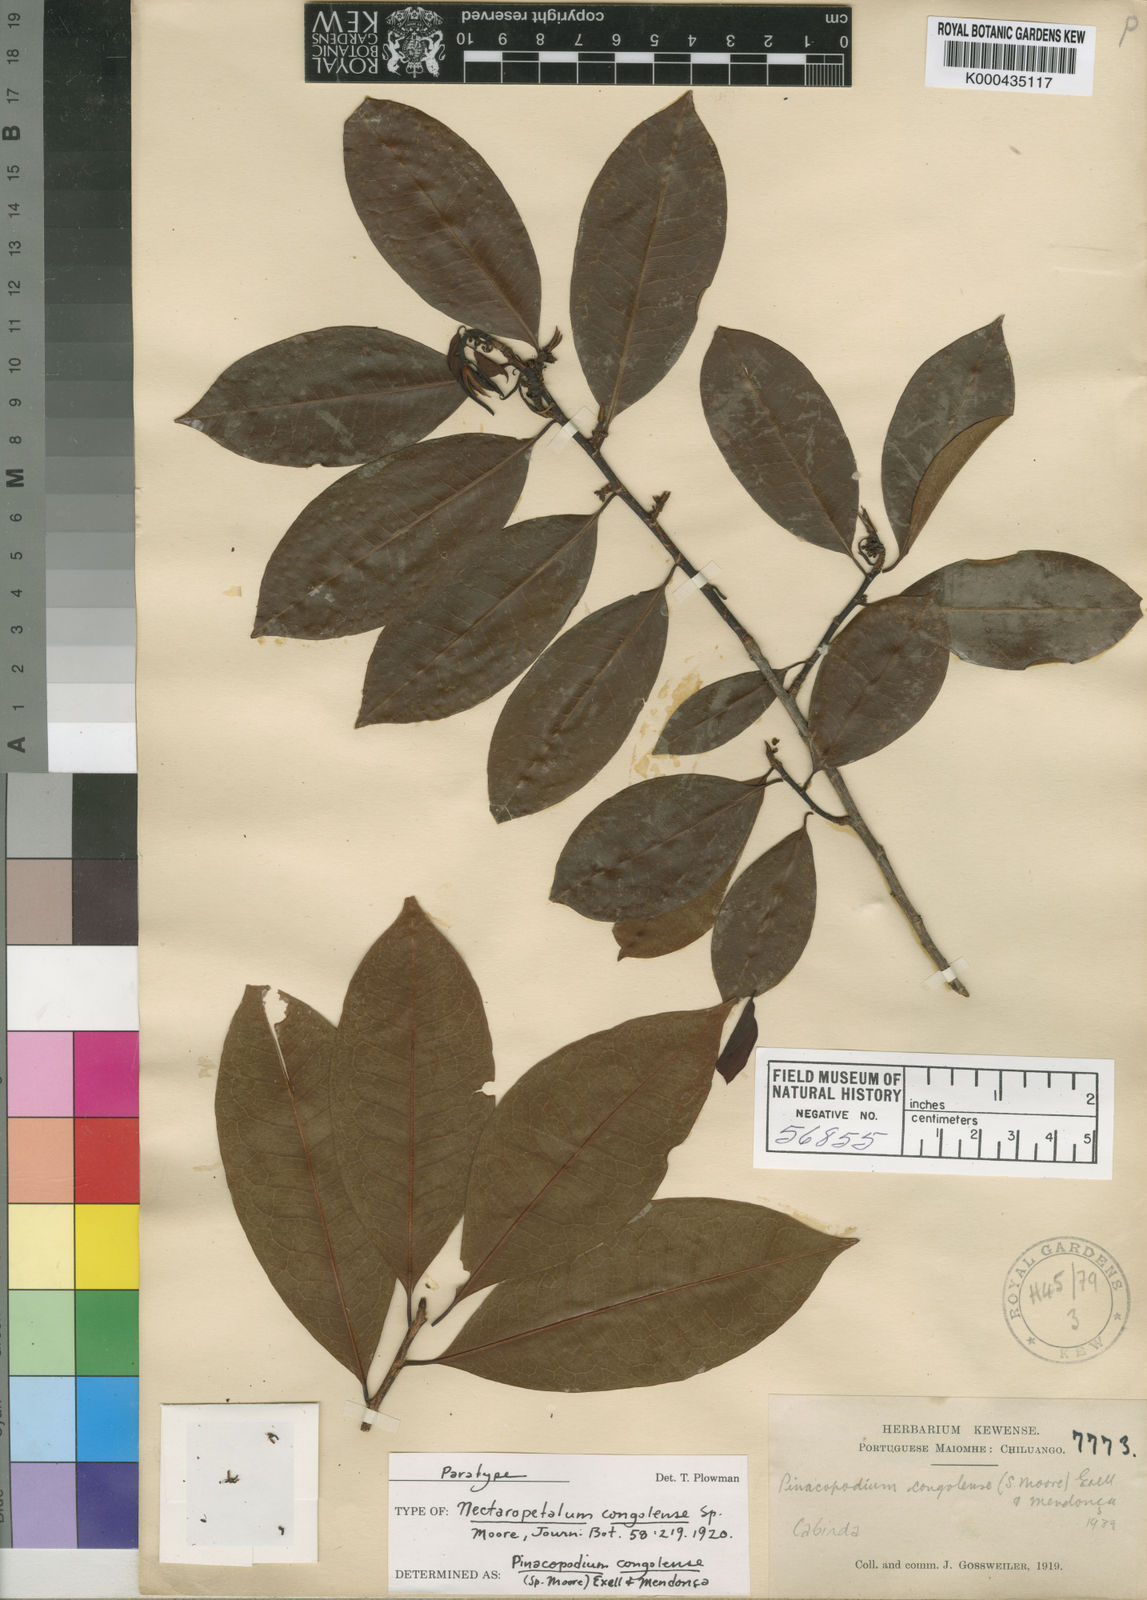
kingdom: Plantae
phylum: Tracheophyta
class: Magnoliopsida
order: Malpighiales
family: Erythroxylaceae
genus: Pinacopodium
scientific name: Pinacopodium congolense
